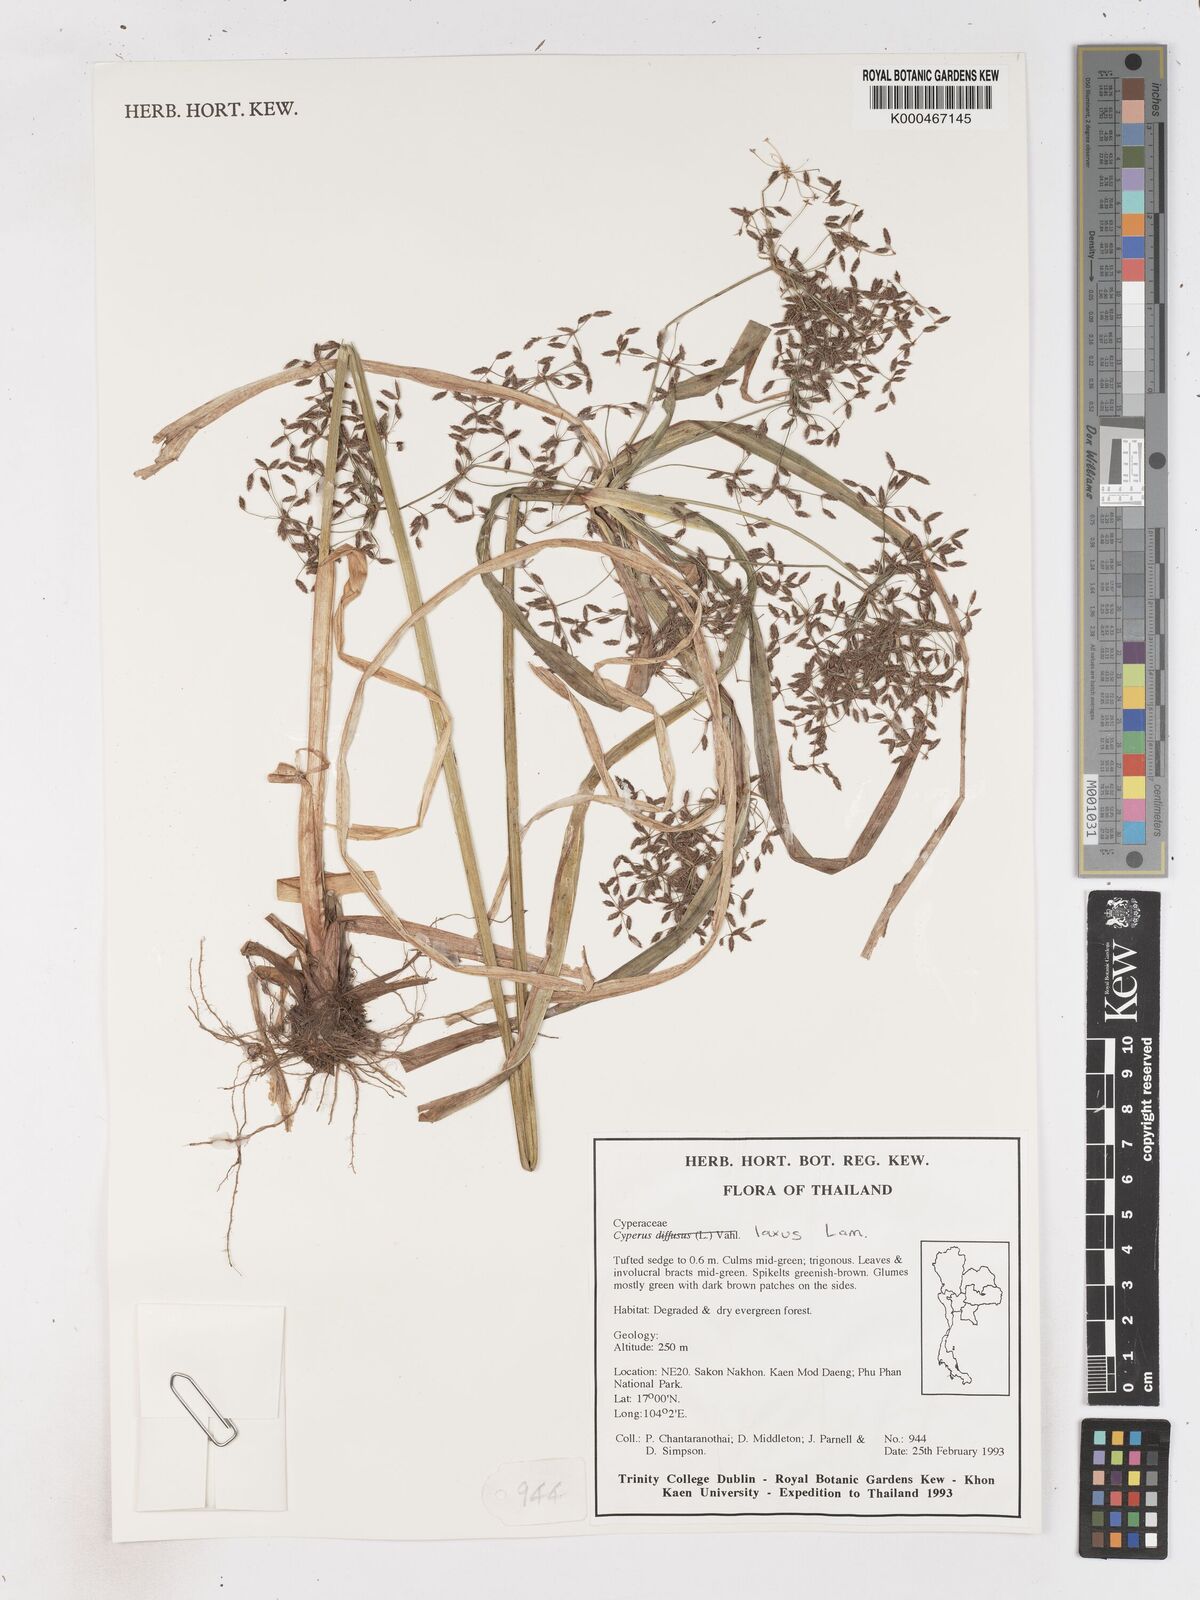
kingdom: Plantae
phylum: Tracheophyta
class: Liliopsida
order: Poales
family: Cyperaceae
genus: Cyperus
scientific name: Cyperus diffusus
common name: Dwarf umbrella grass
